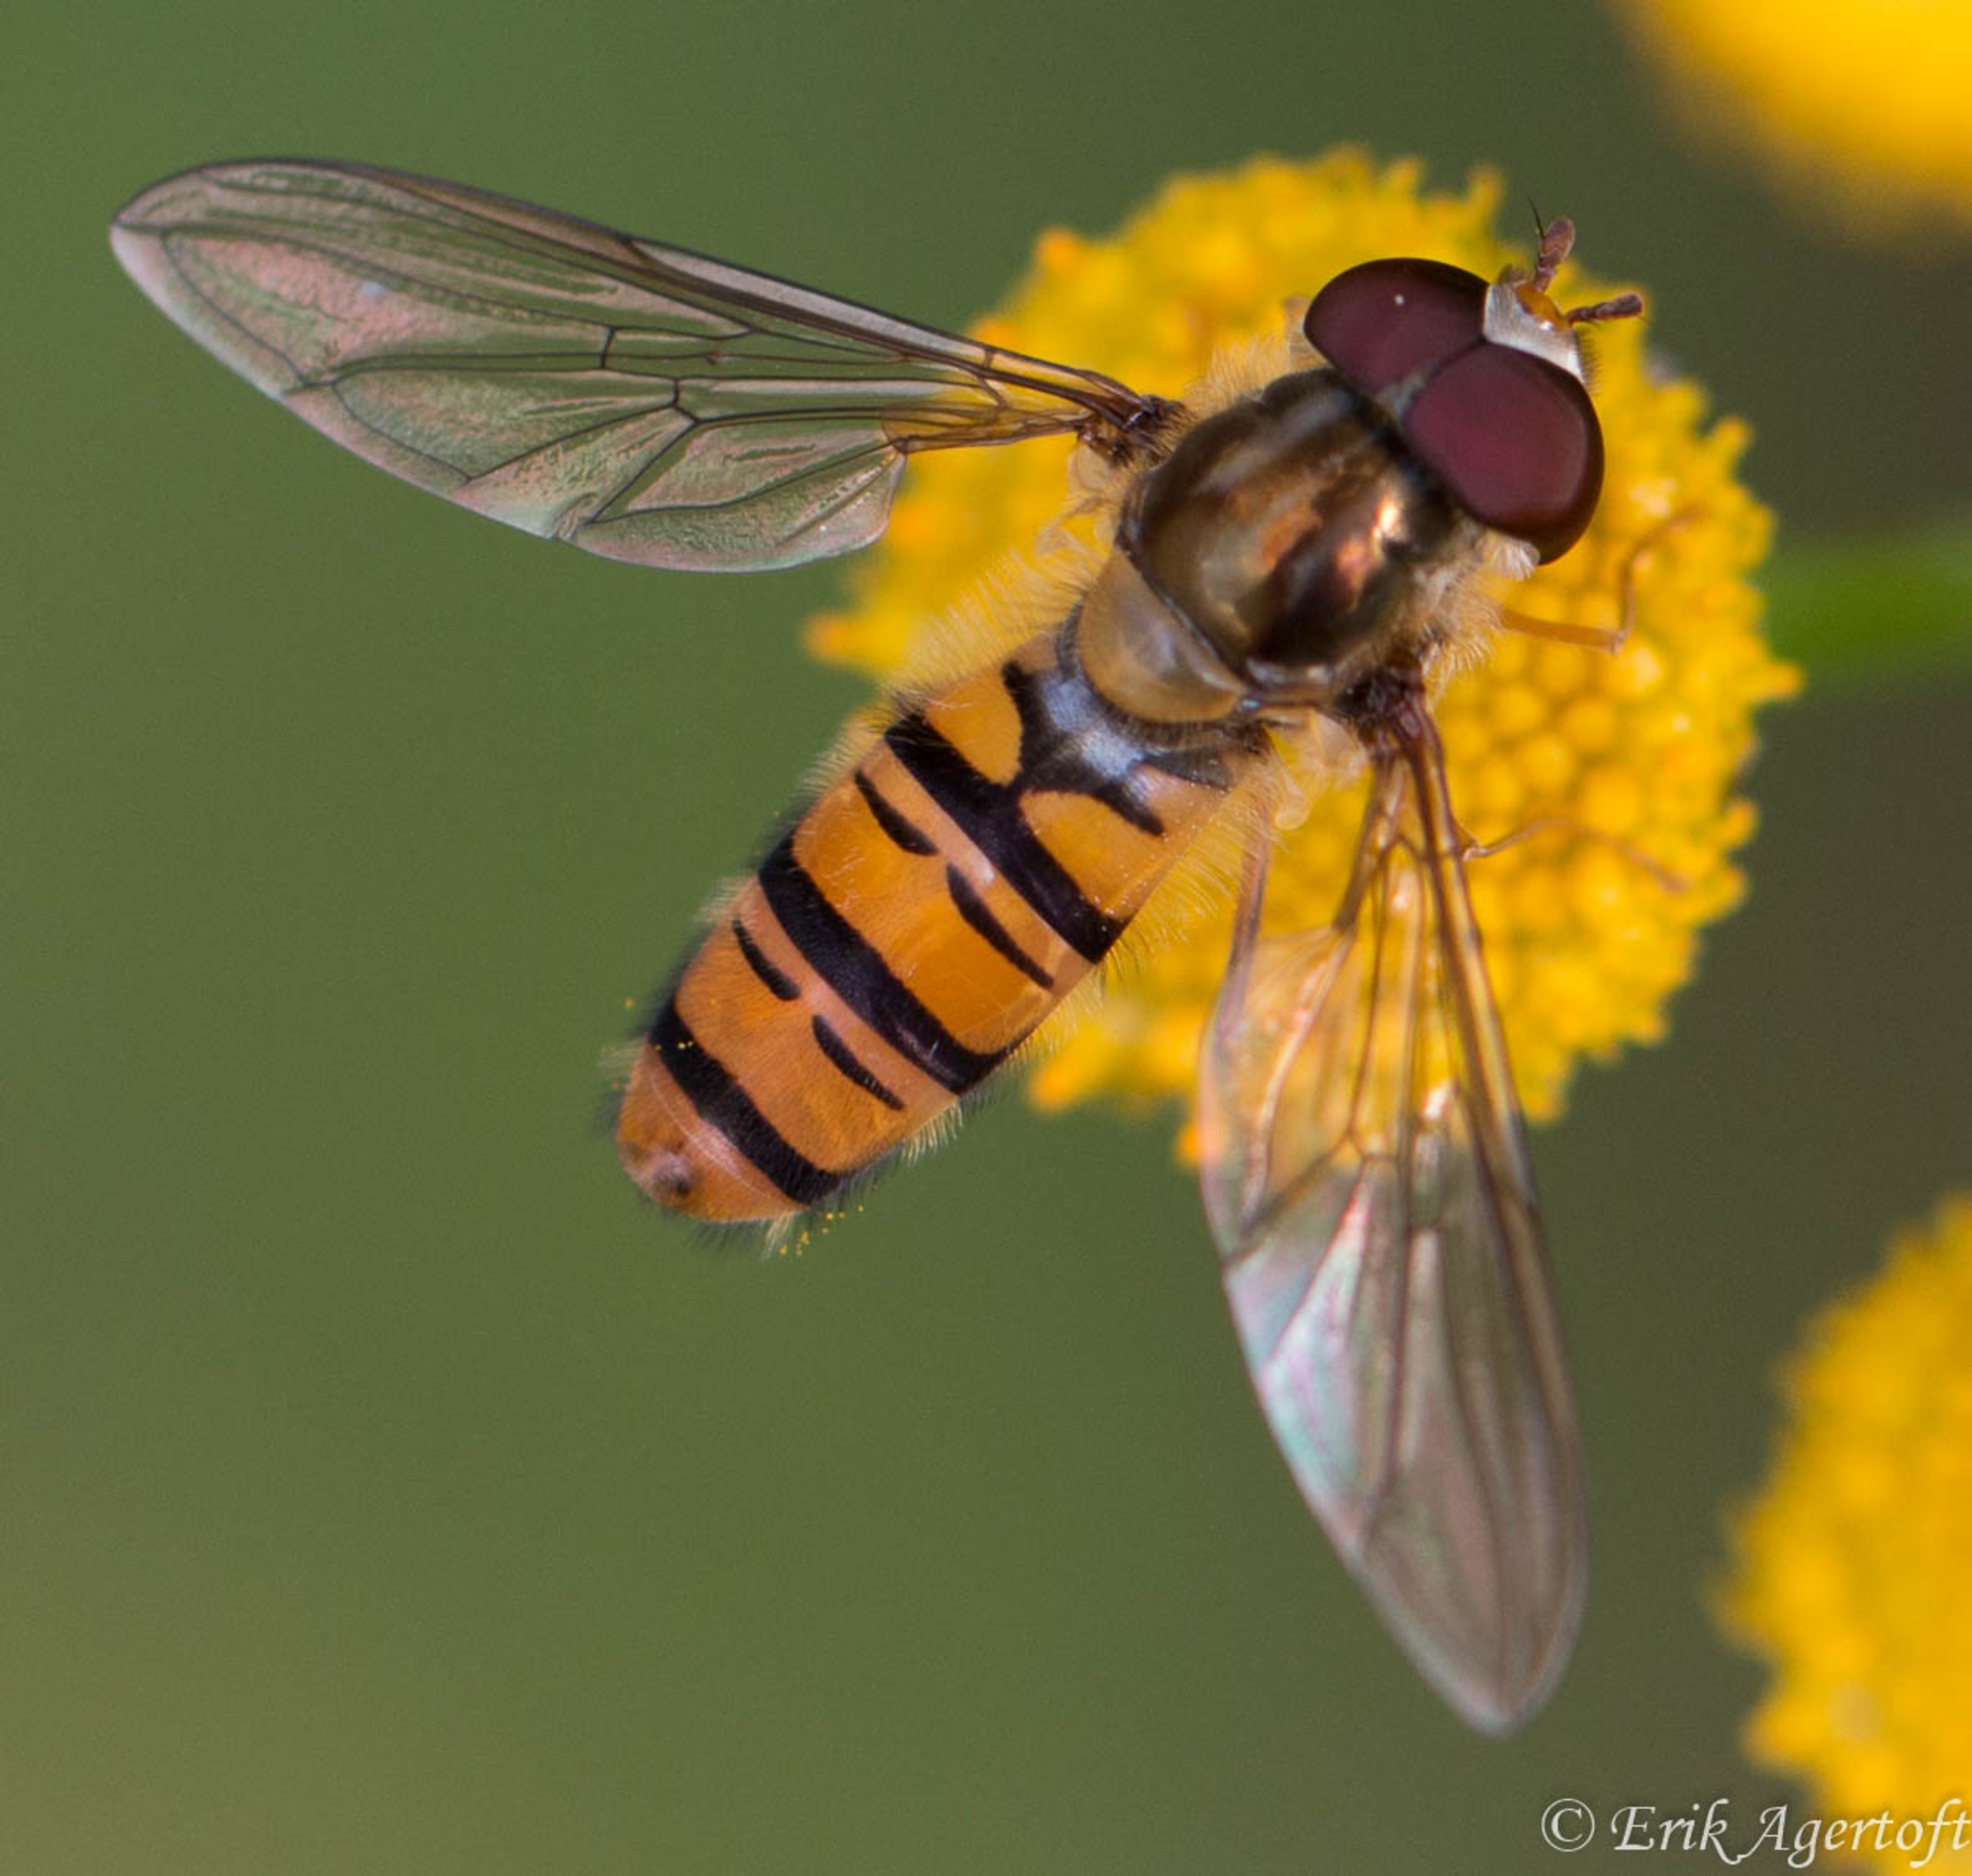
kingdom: Animalia
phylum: Arthropoda
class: Insecta
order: Diptera
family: Syrphidae
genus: Episyrphus
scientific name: Episyrphus balteatus
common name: Dobbeltbåndet svirreflue
